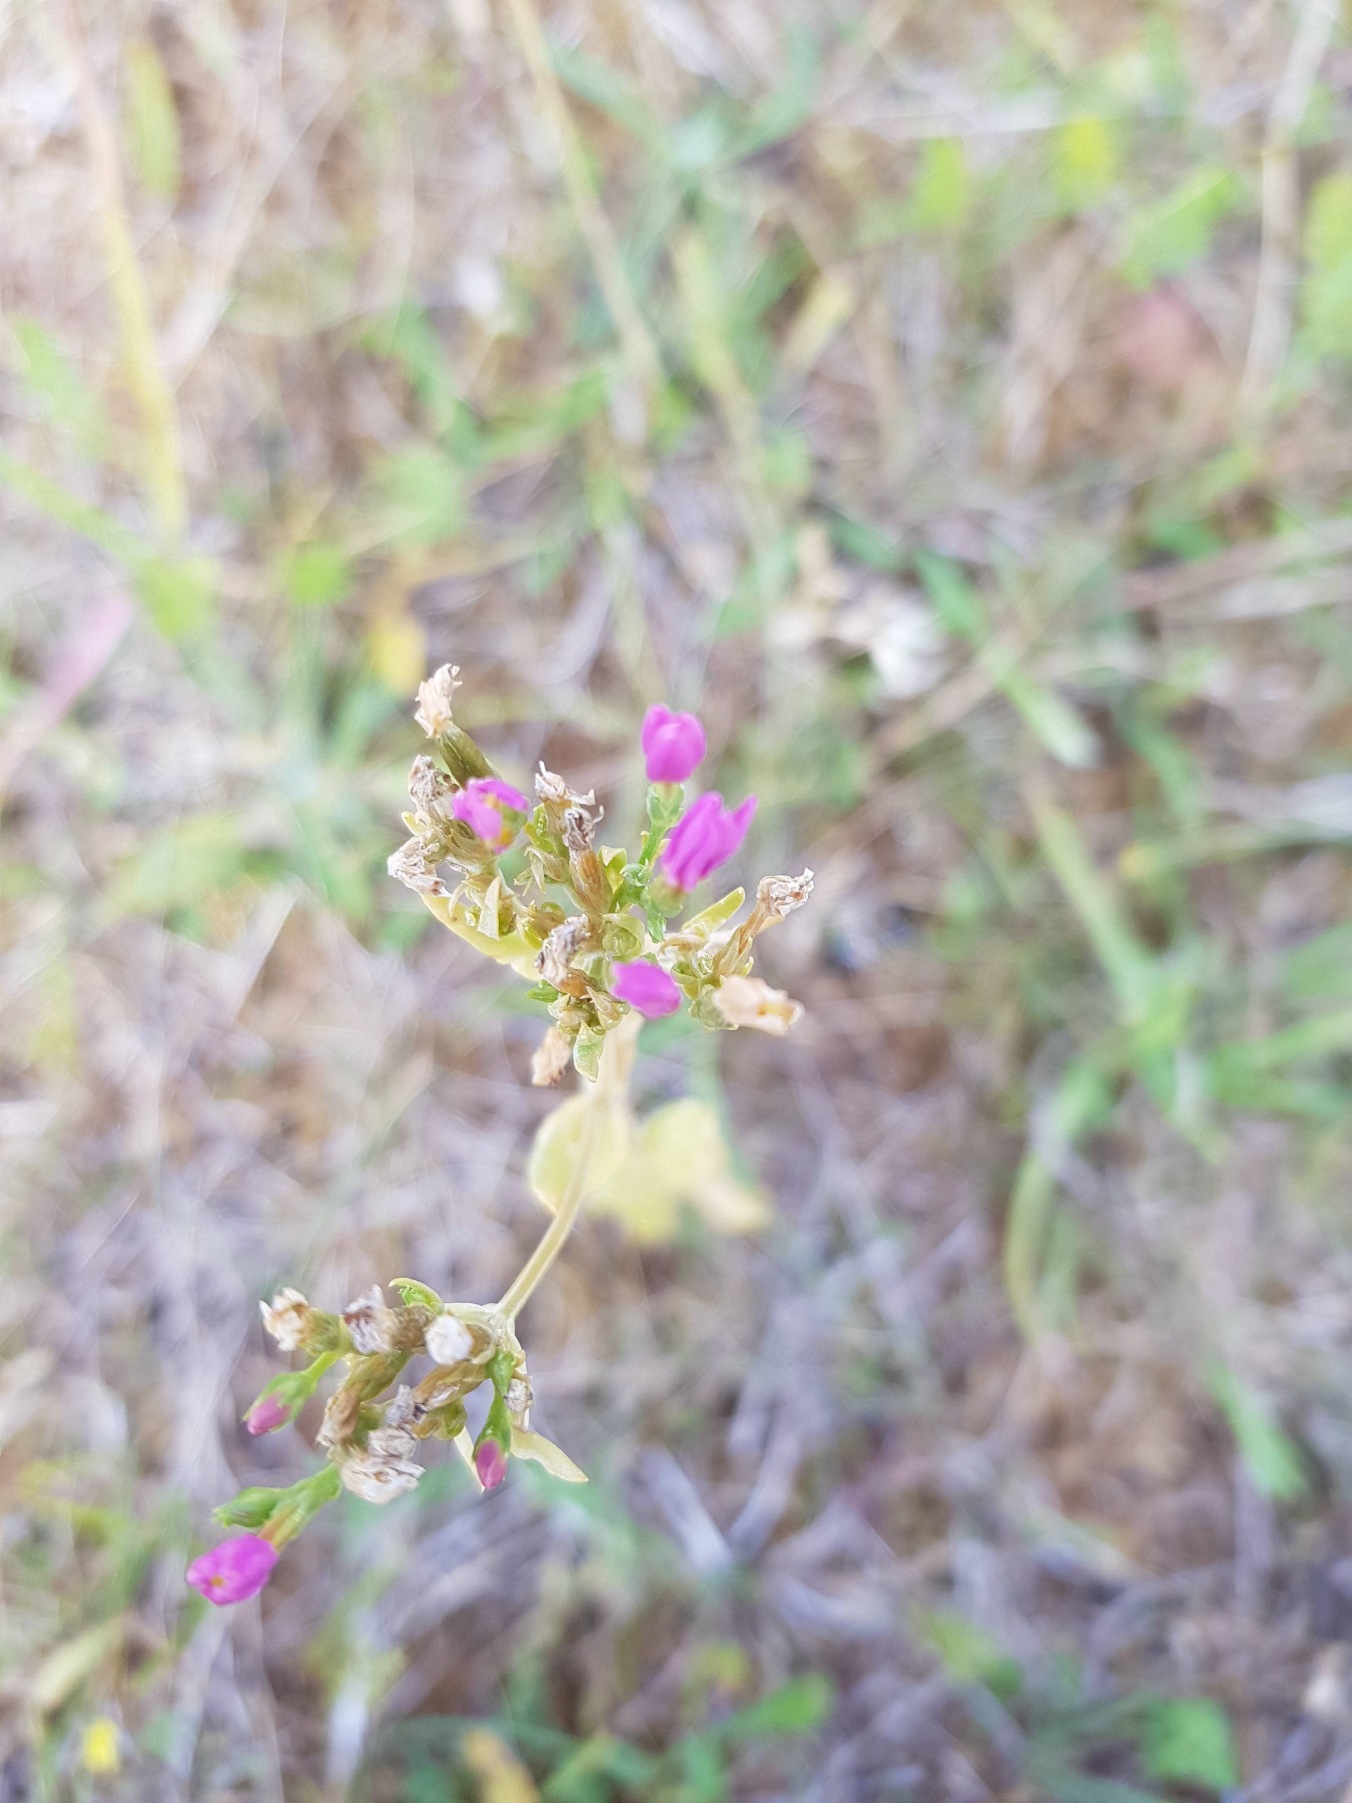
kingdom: Plantae
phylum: Tracheophyta
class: Magnoliopsida
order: Gentianales
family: Gentianaceae
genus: Centaurium
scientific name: Centaurium erythraea
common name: Mark-tusindgylden
